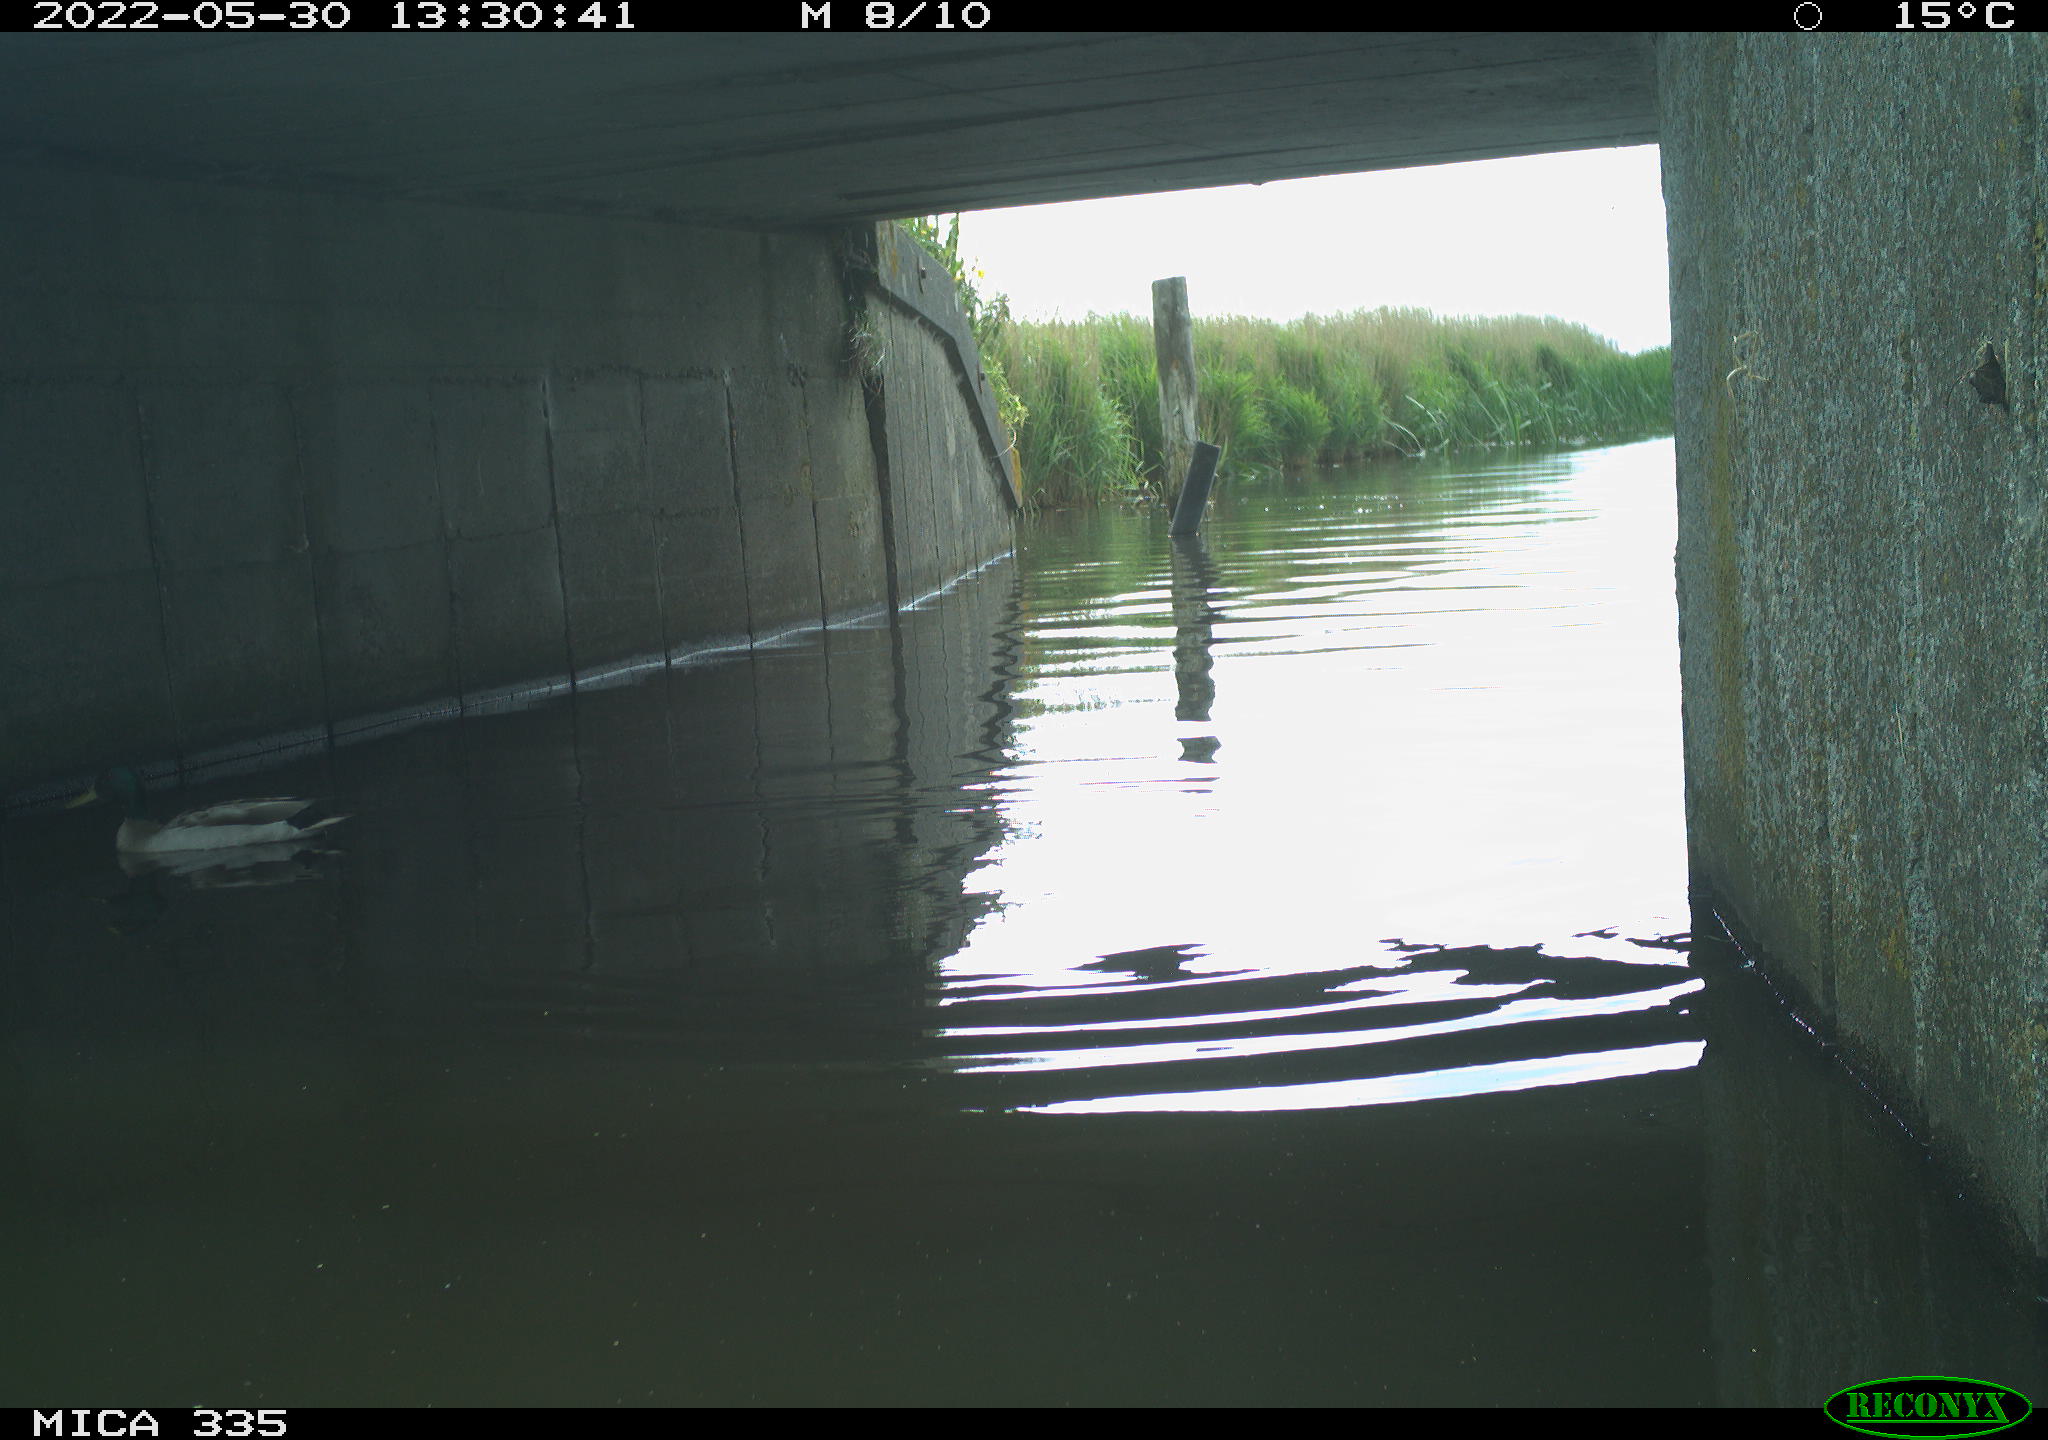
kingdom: Animalia
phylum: Chordata
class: Aves
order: Anseriformes
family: Anatidae
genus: Anas
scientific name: Anas platyrhynchos
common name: Mallard
